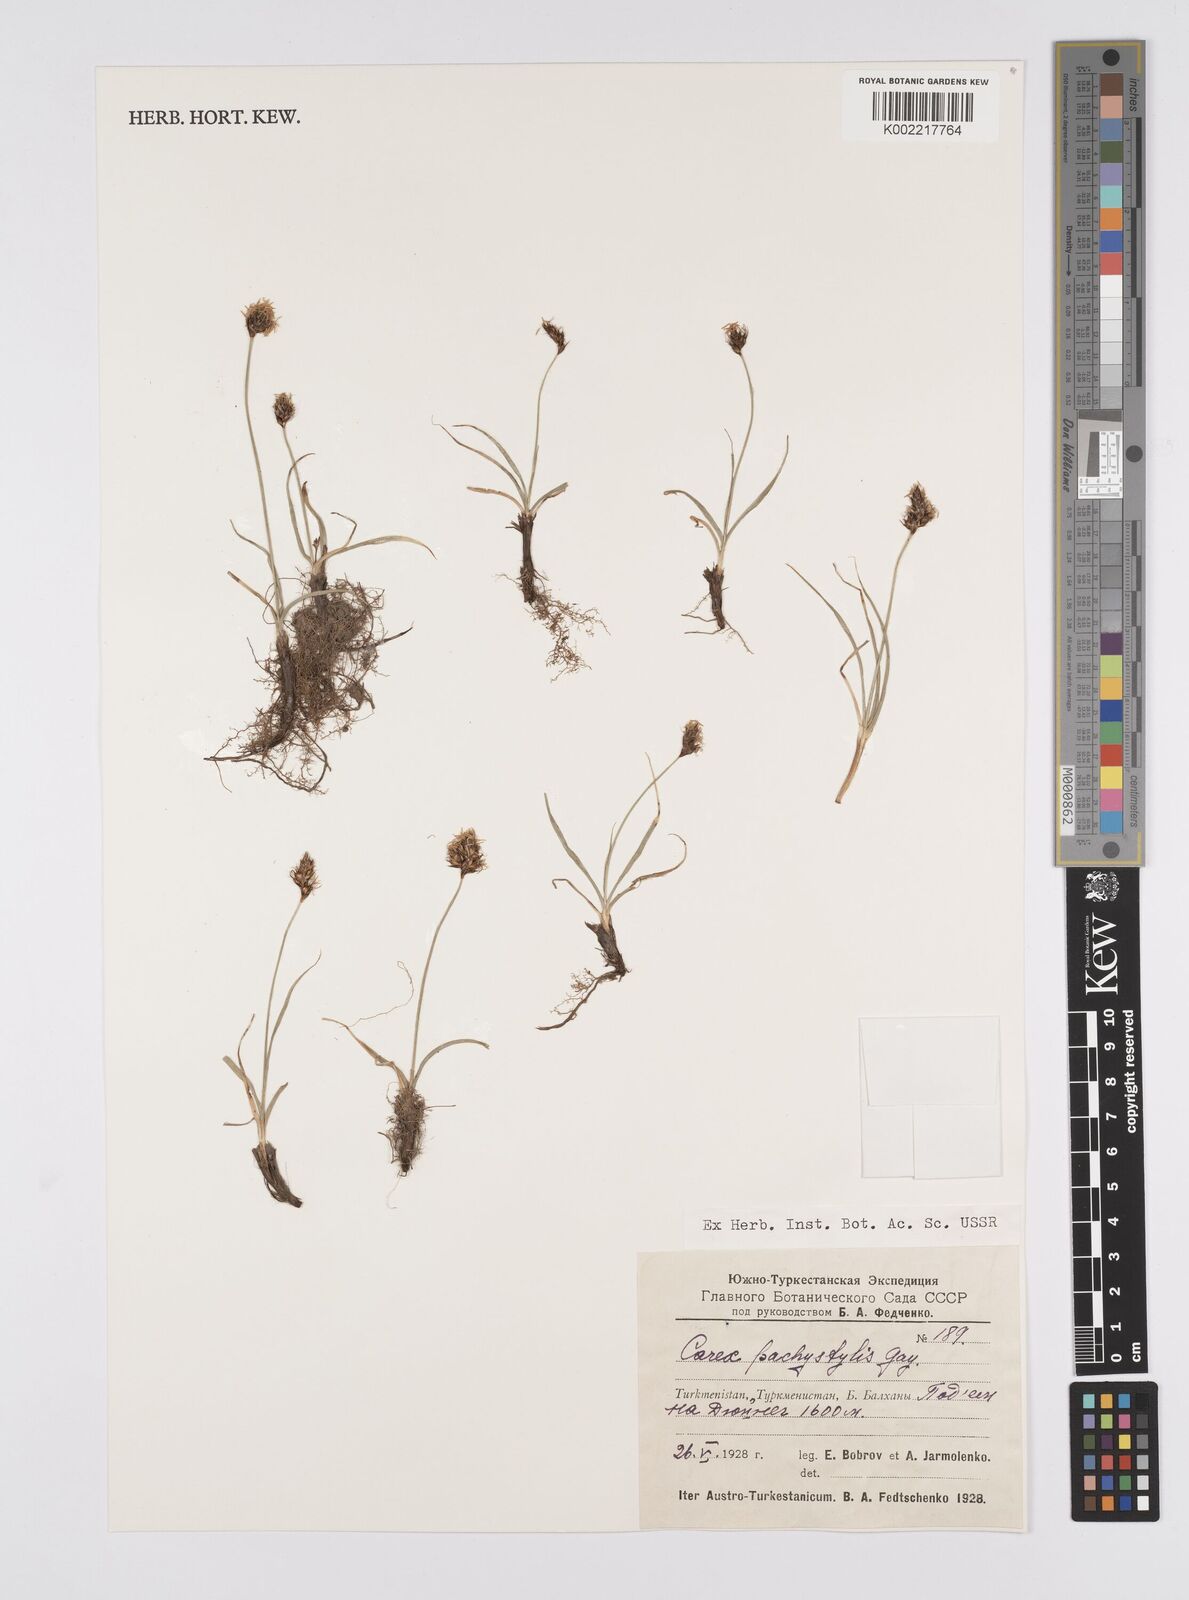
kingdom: Plantae
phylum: Tracheophyta
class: Liliopsida
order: Poales
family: Cyperaceae
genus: Carex
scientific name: Carex stenophylla
